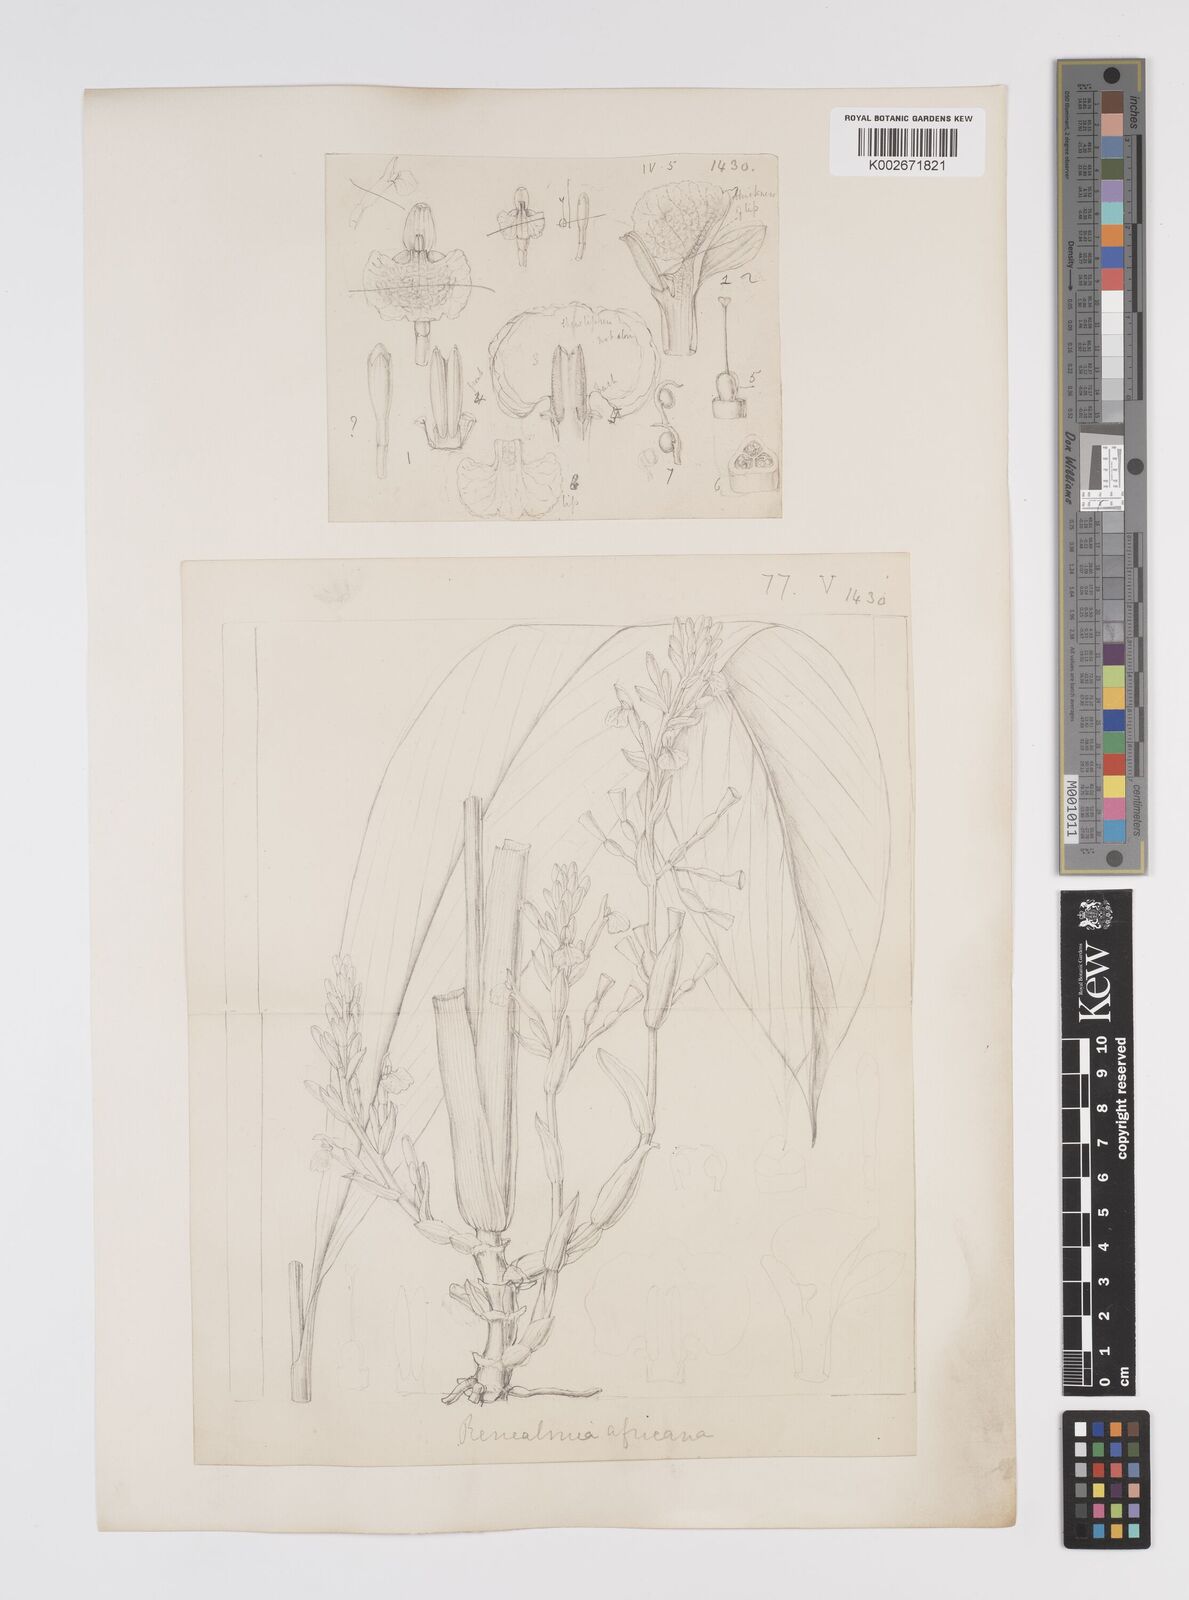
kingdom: Plantae
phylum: Tracheophyta
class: Liliopsida
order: Zingiberales
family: Zingiberaceae
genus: Renealmia
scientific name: Renealmia africana
